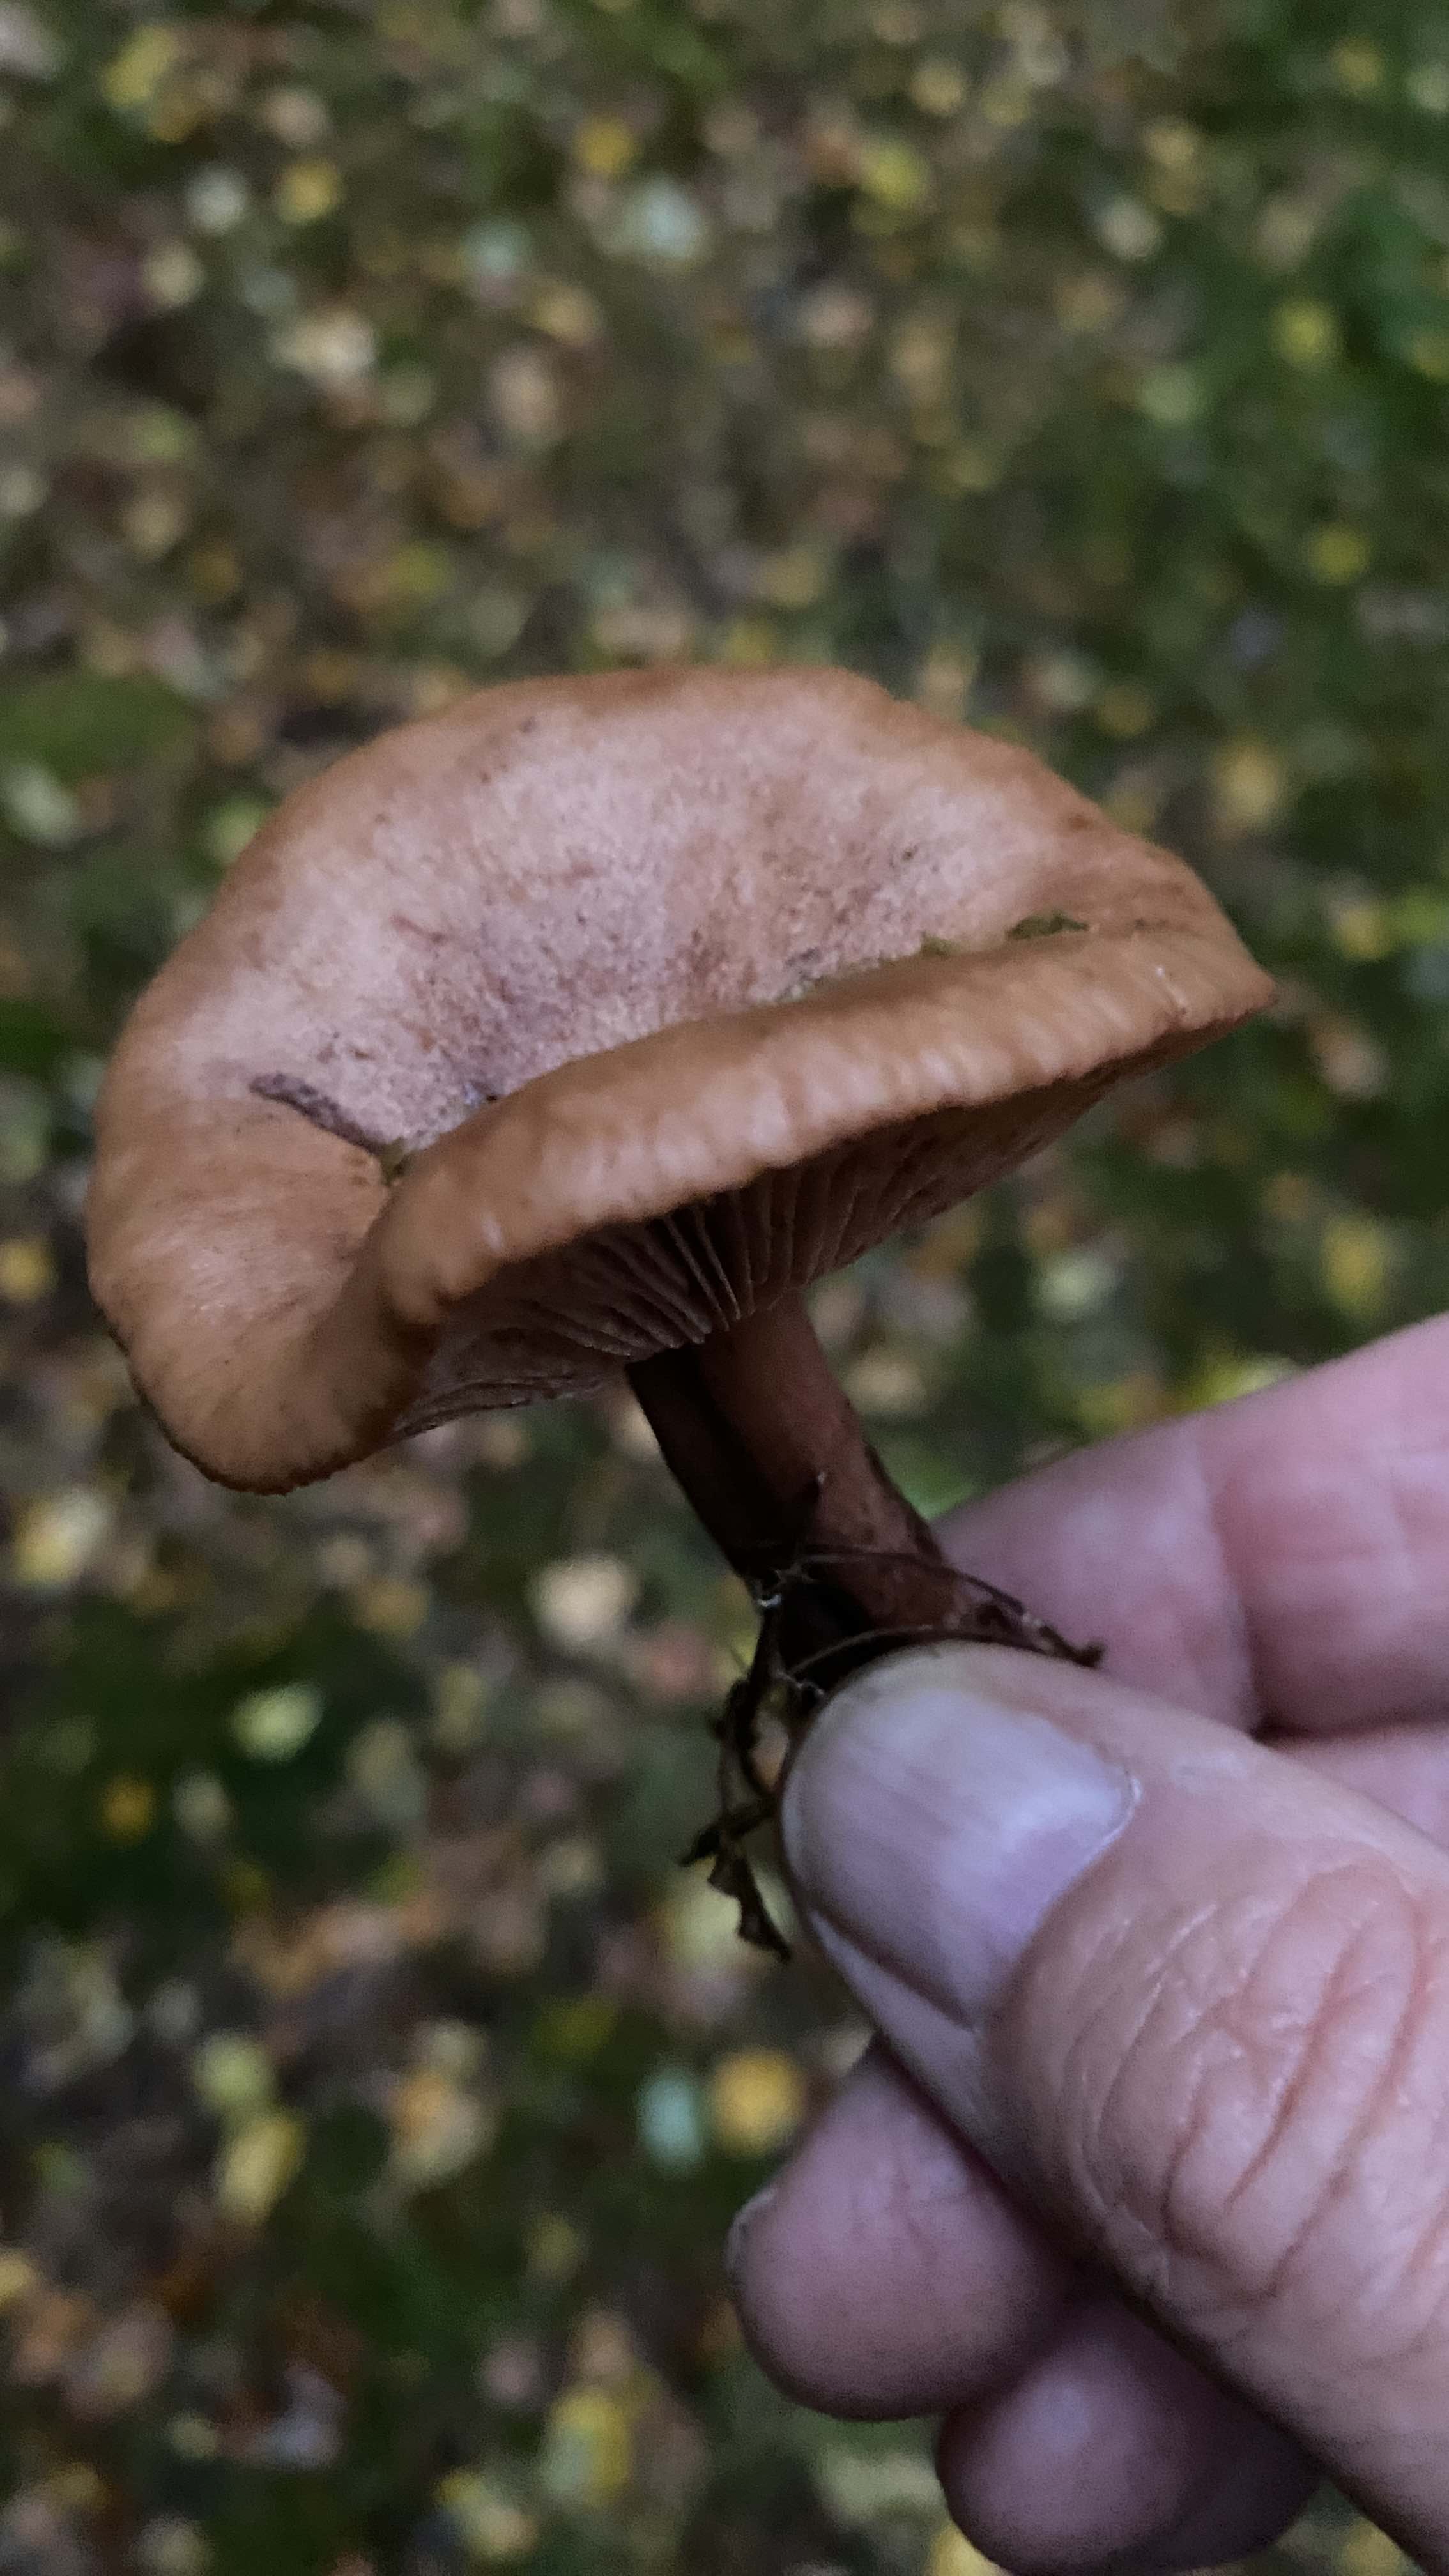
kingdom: Fungi
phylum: Basidiomycota
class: Agaricomycetes
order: Russulales
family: Russulaceae
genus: Lactarius
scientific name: Lactarius quietus
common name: ege-mælkehat
